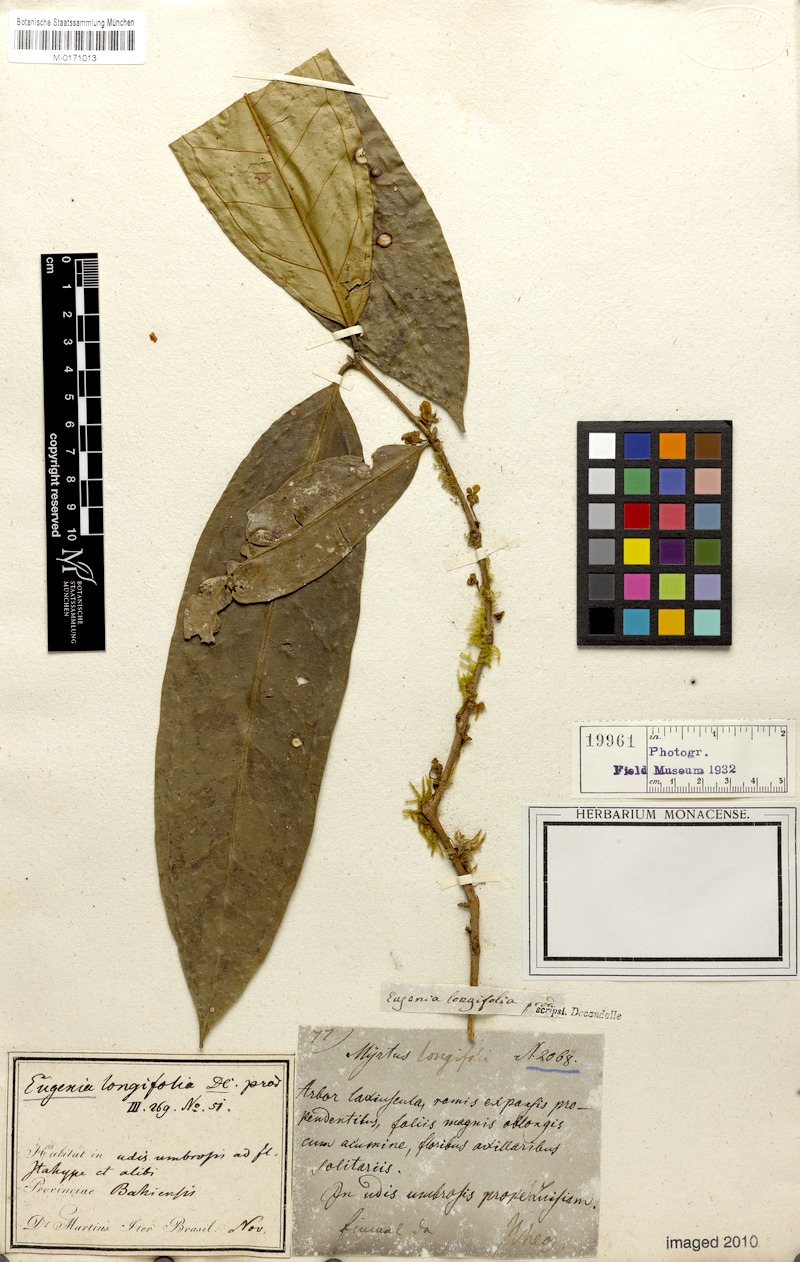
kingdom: Plantae
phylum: Tracheophyta
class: Magnoliopsida
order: Myrtales
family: Myrtaceae
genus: Eugenia
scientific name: Eugenia longifolia
